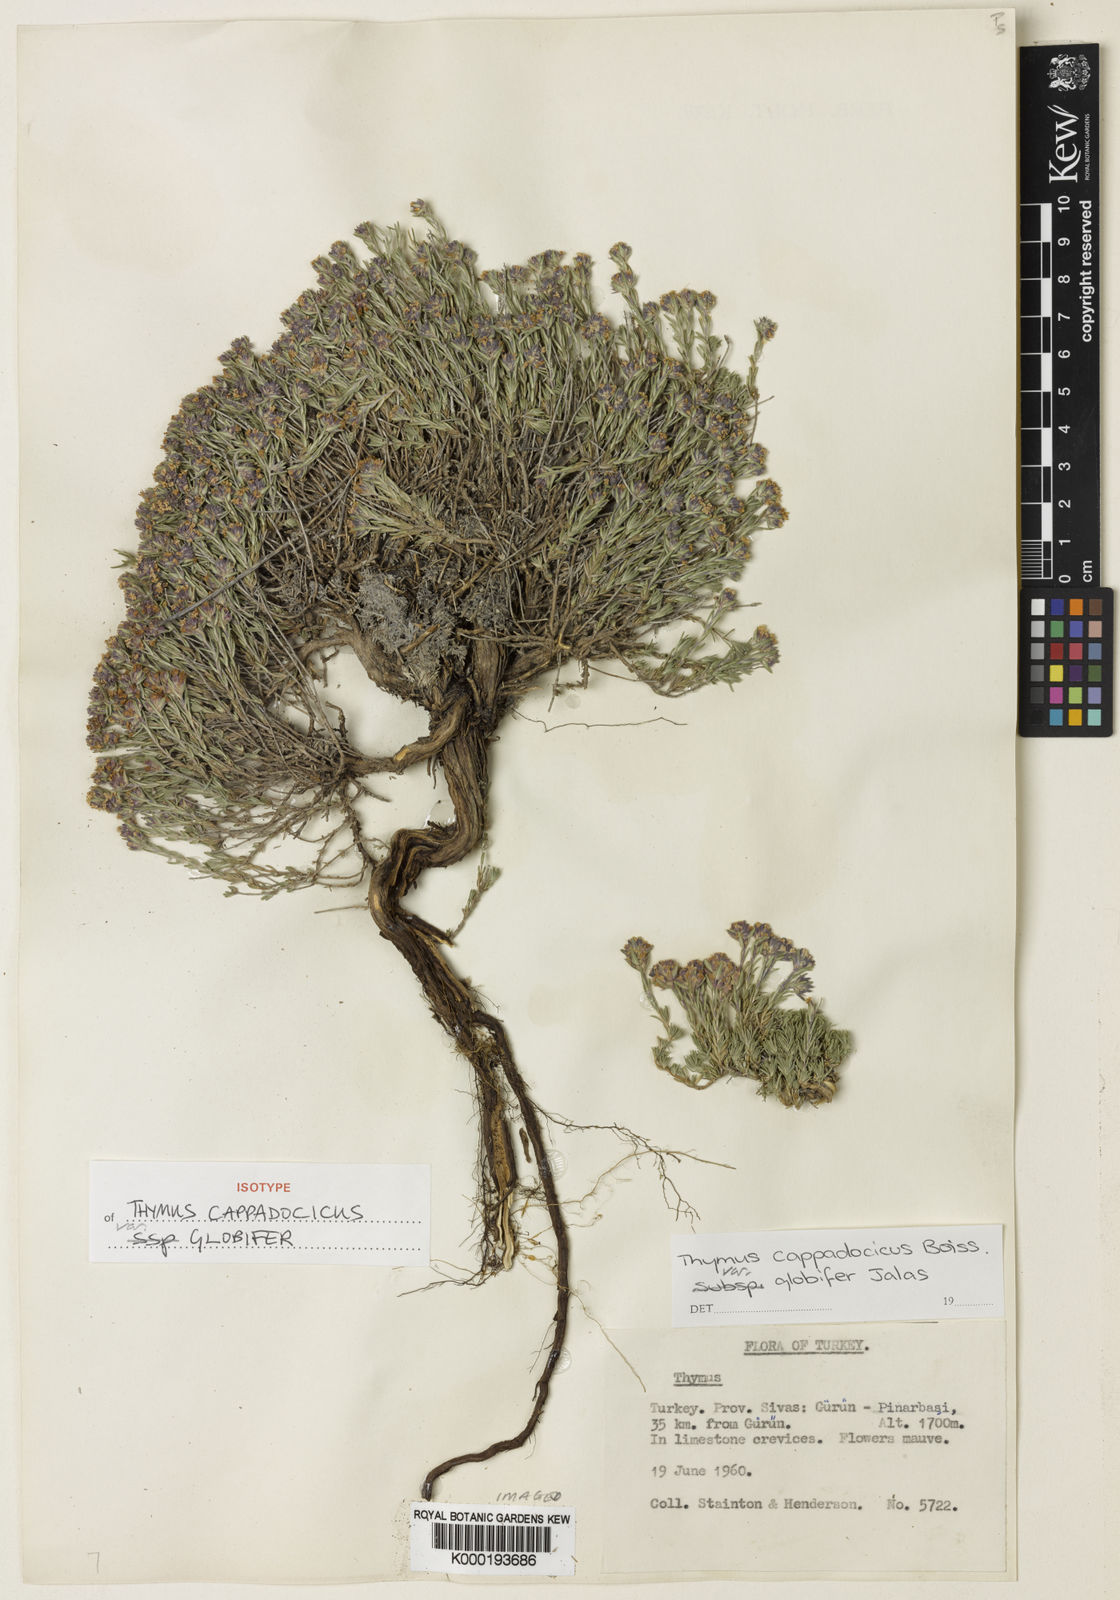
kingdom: Plantae
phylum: Tracheophyta
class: Magnoliopsida
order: Lamiales
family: Lamiaceae
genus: Thymus
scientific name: Thymus cappadocicus
